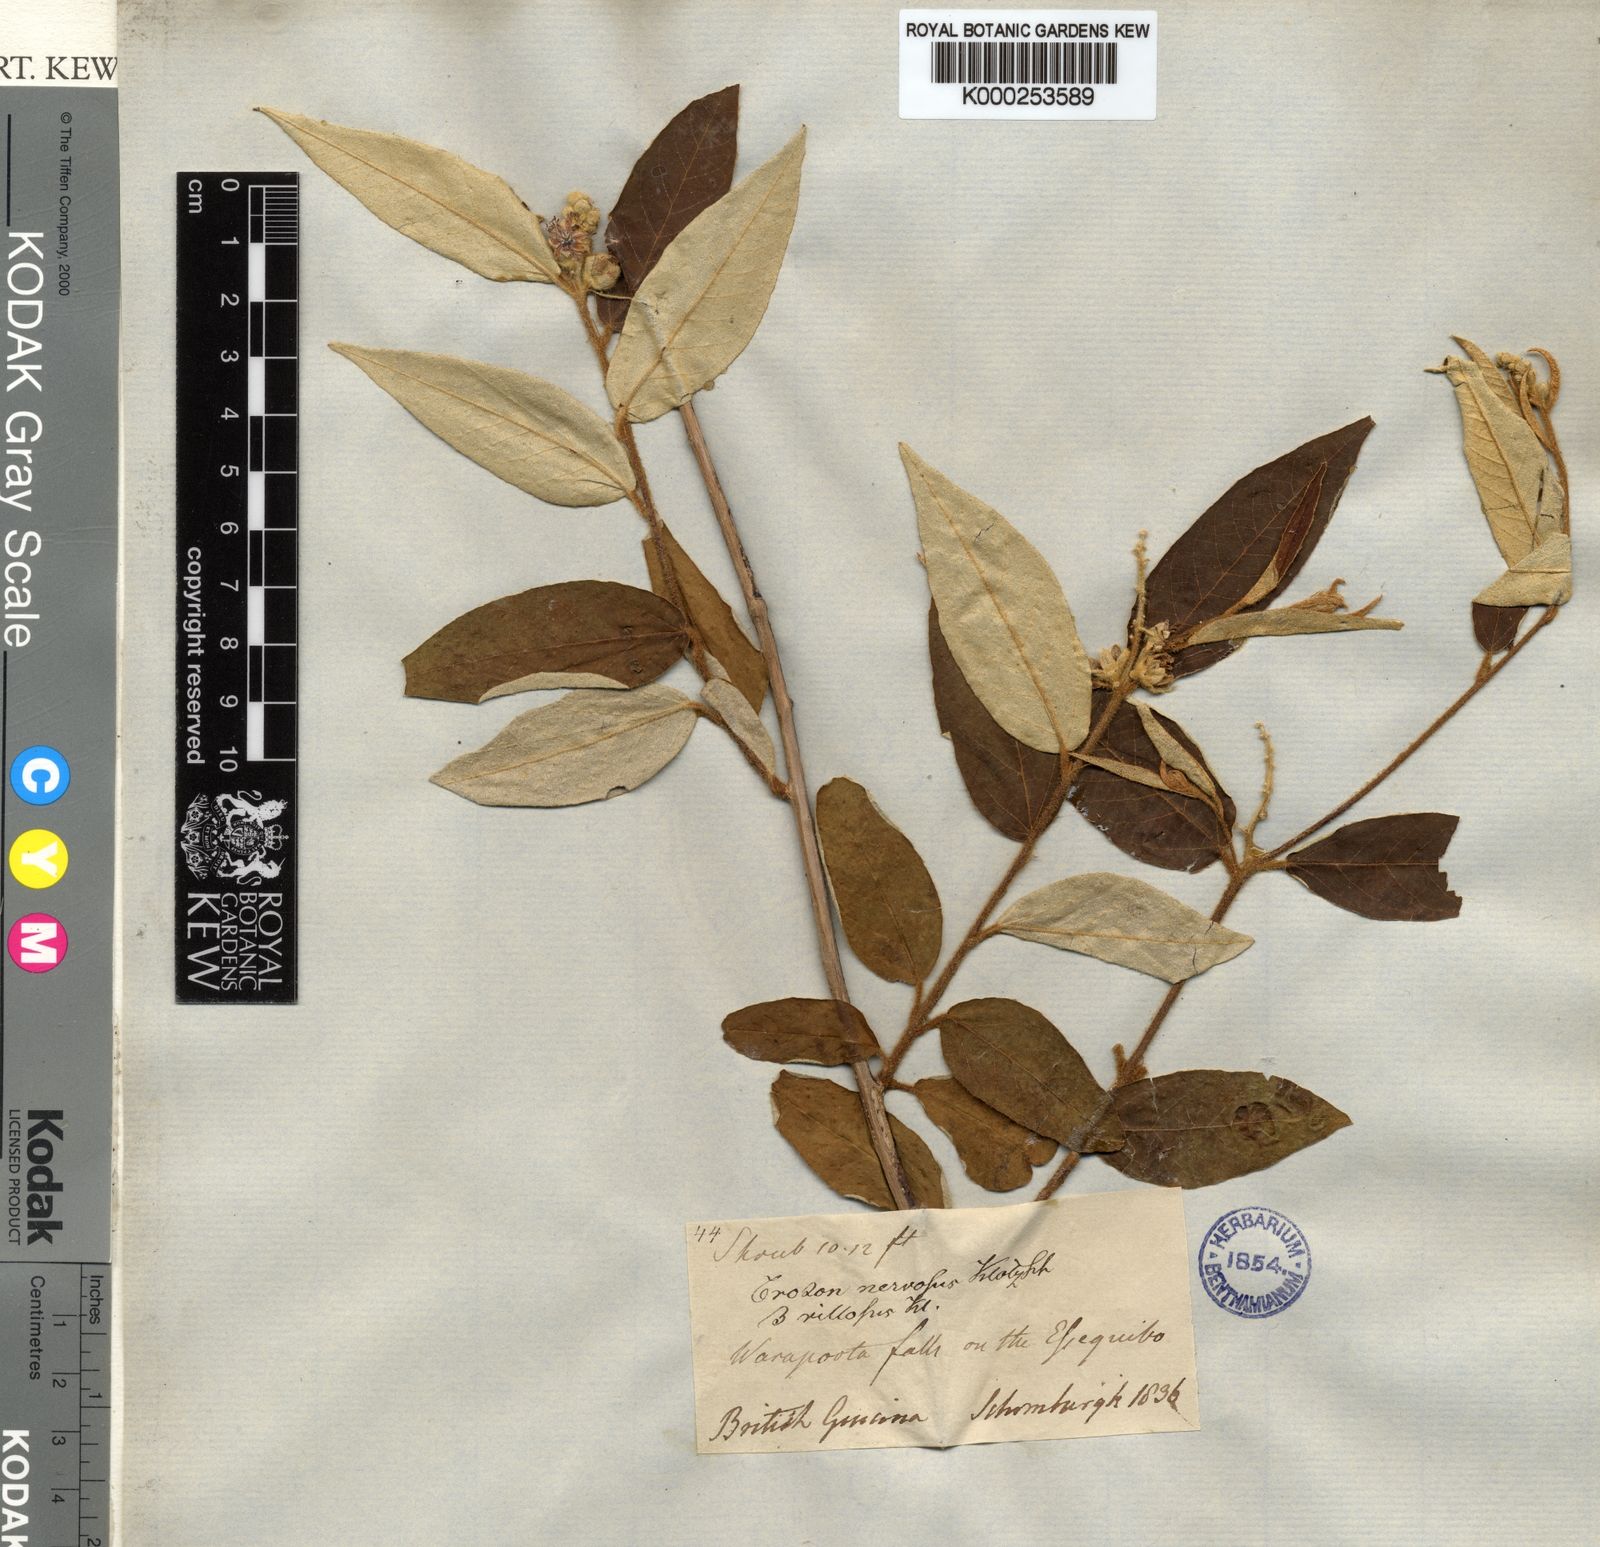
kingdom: Plantae
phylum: Tracheophyta
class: Magnoliopsida
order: Malpighiales
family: Euphorbiaceae
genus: Croton
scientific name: Croton argyrophyllus
